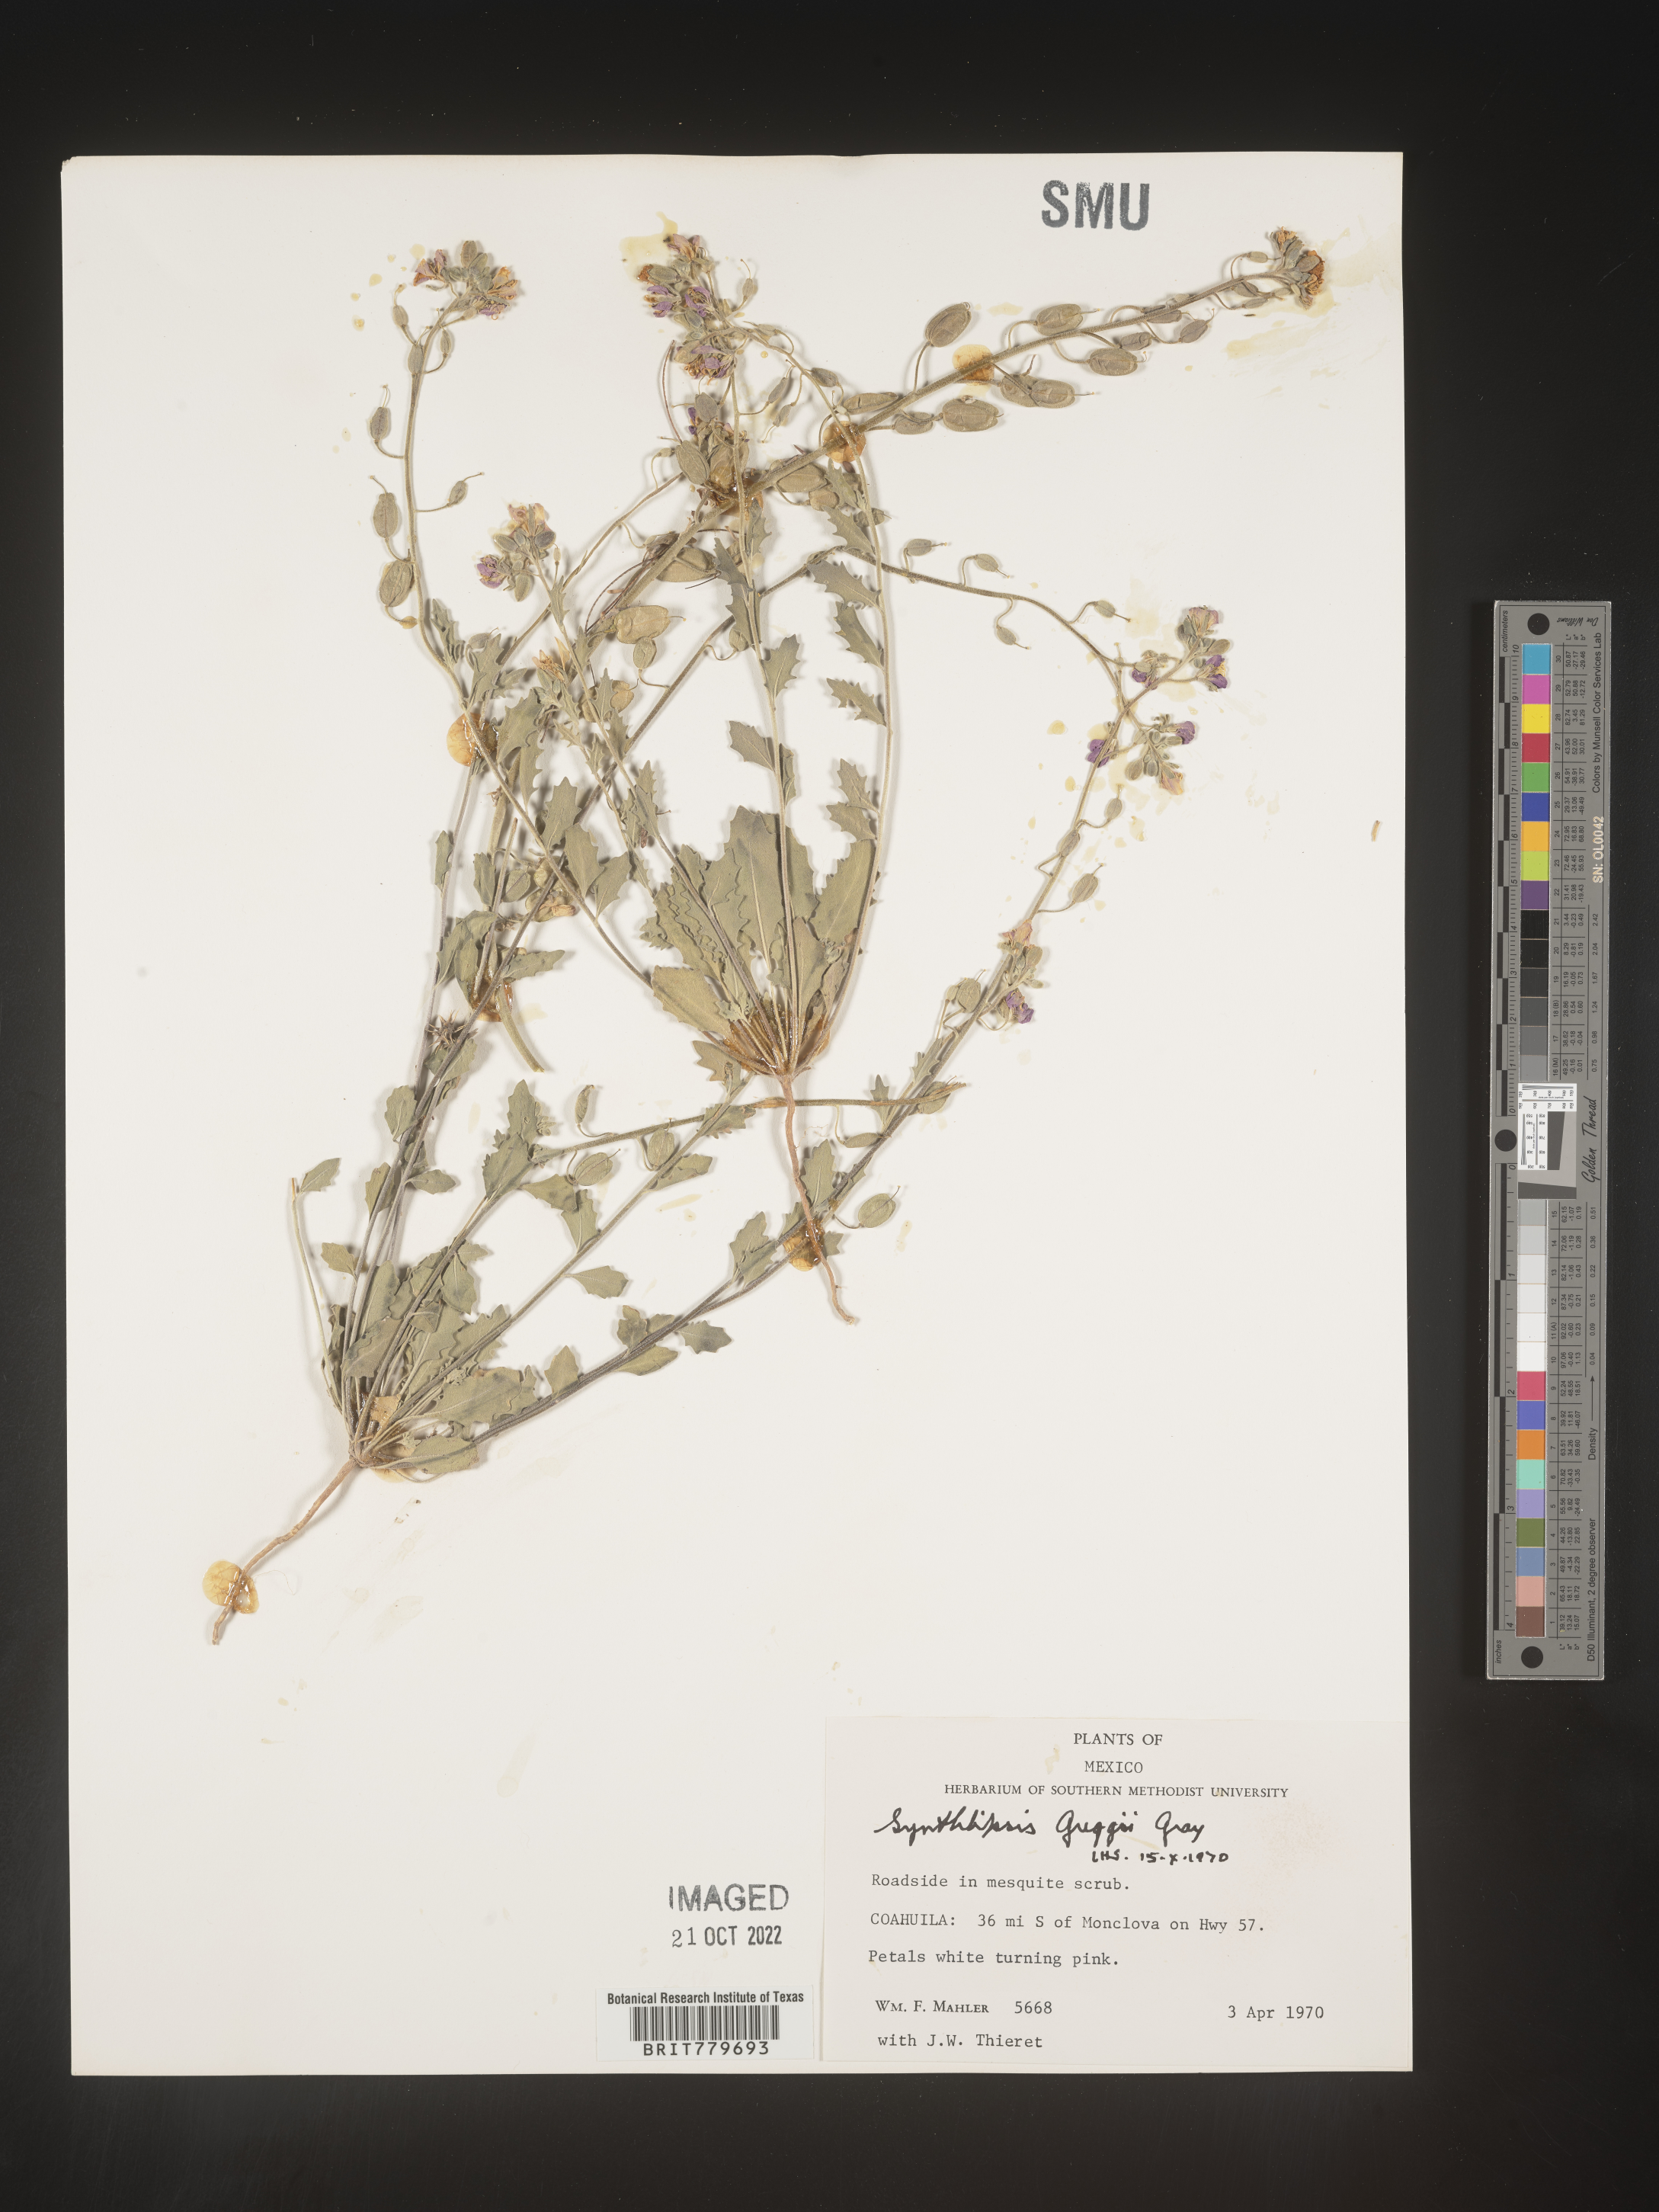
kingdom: Plantae
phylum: Tracheophyta
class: Magnoliopsida
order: Brassicales
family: Brassicaceae
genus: Synthlipsis
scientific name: Synthlipsis
